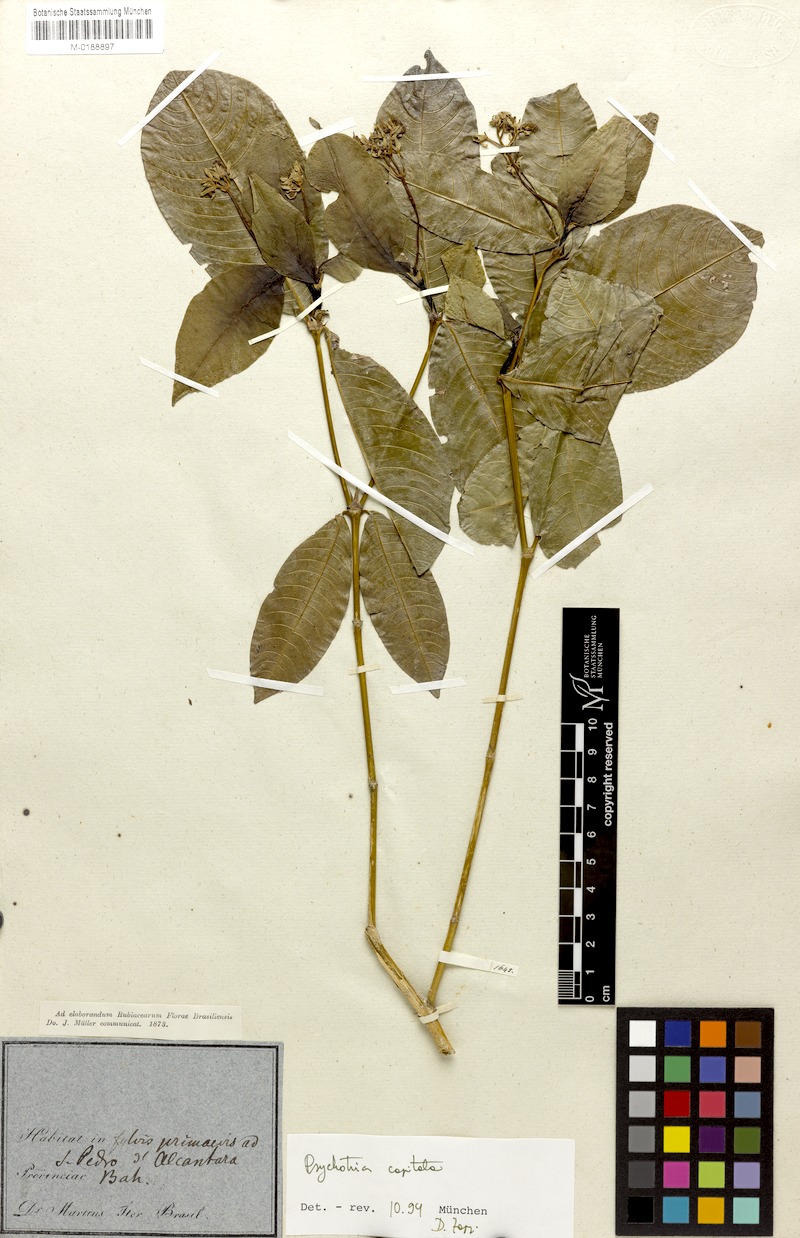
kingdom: Plantae
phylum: Tracheophyta
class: Magnoliopsida
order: Gentianales
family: Rubiaceae
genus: Palicourea
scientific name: Palicourea violacea
